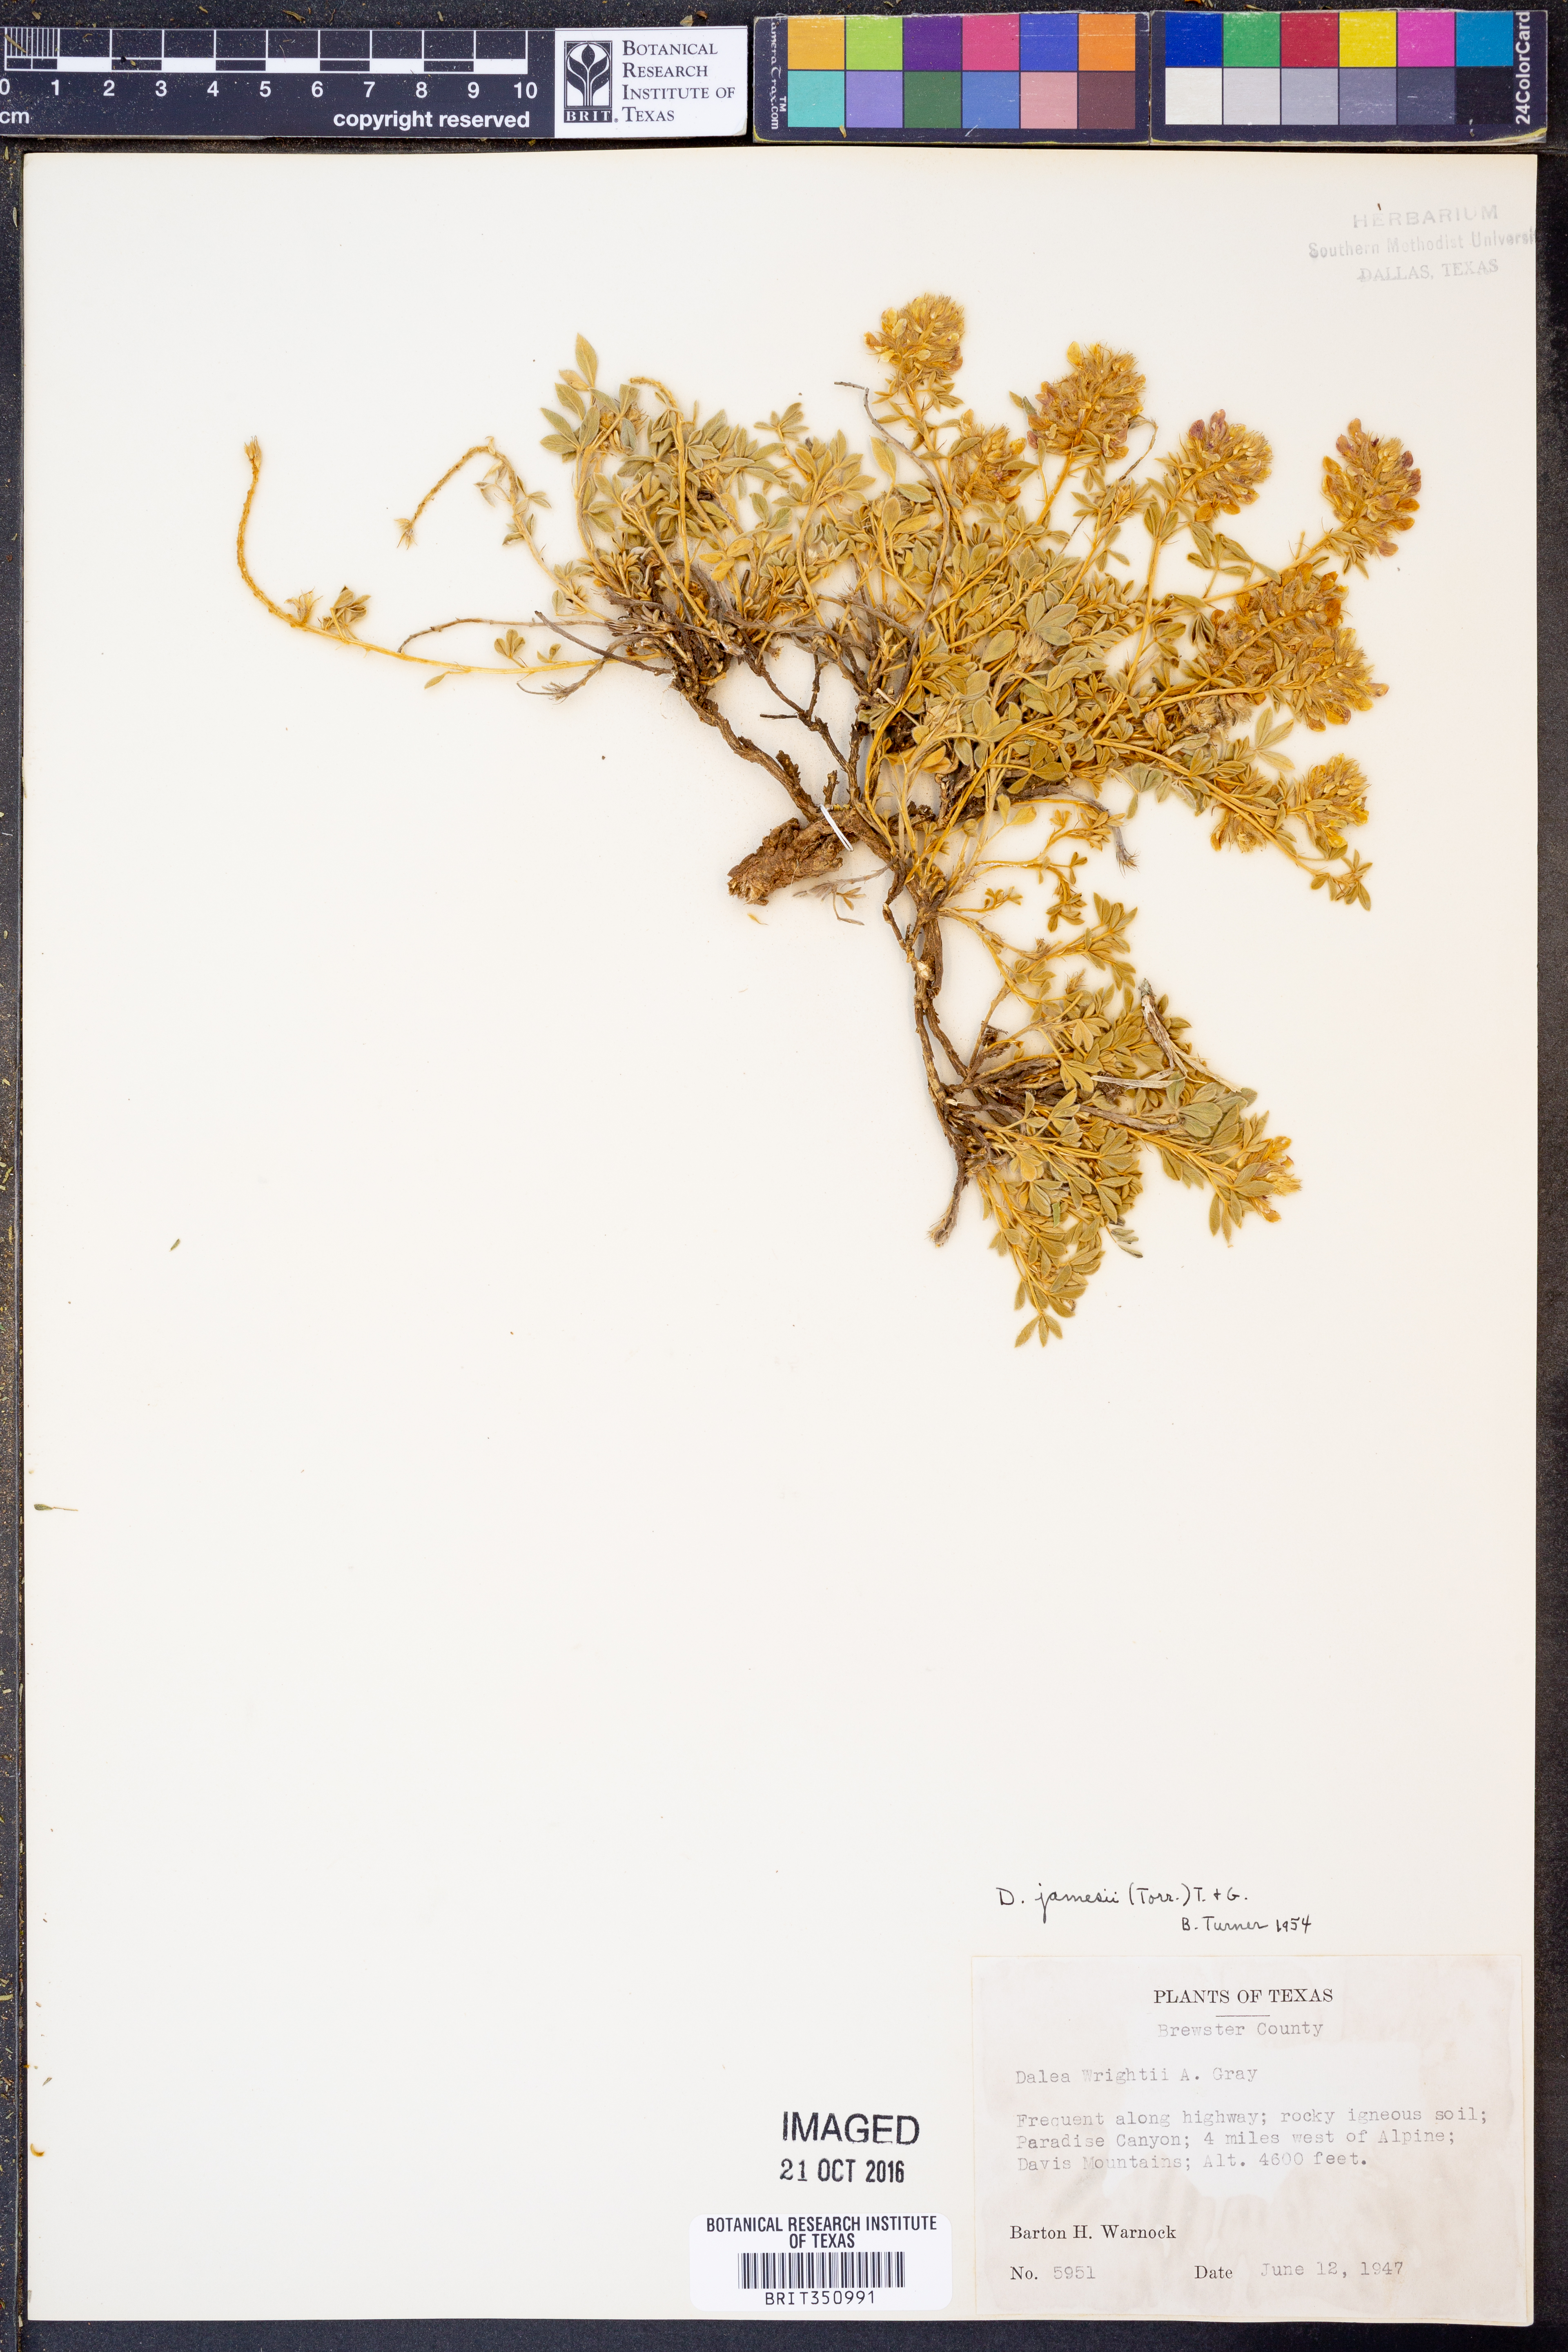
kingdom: Plantae
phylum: Tracheophyta
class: Magnoliopsida
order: Fabales
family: Fabaceae
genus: Dalea
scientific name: Dalea jamesii
